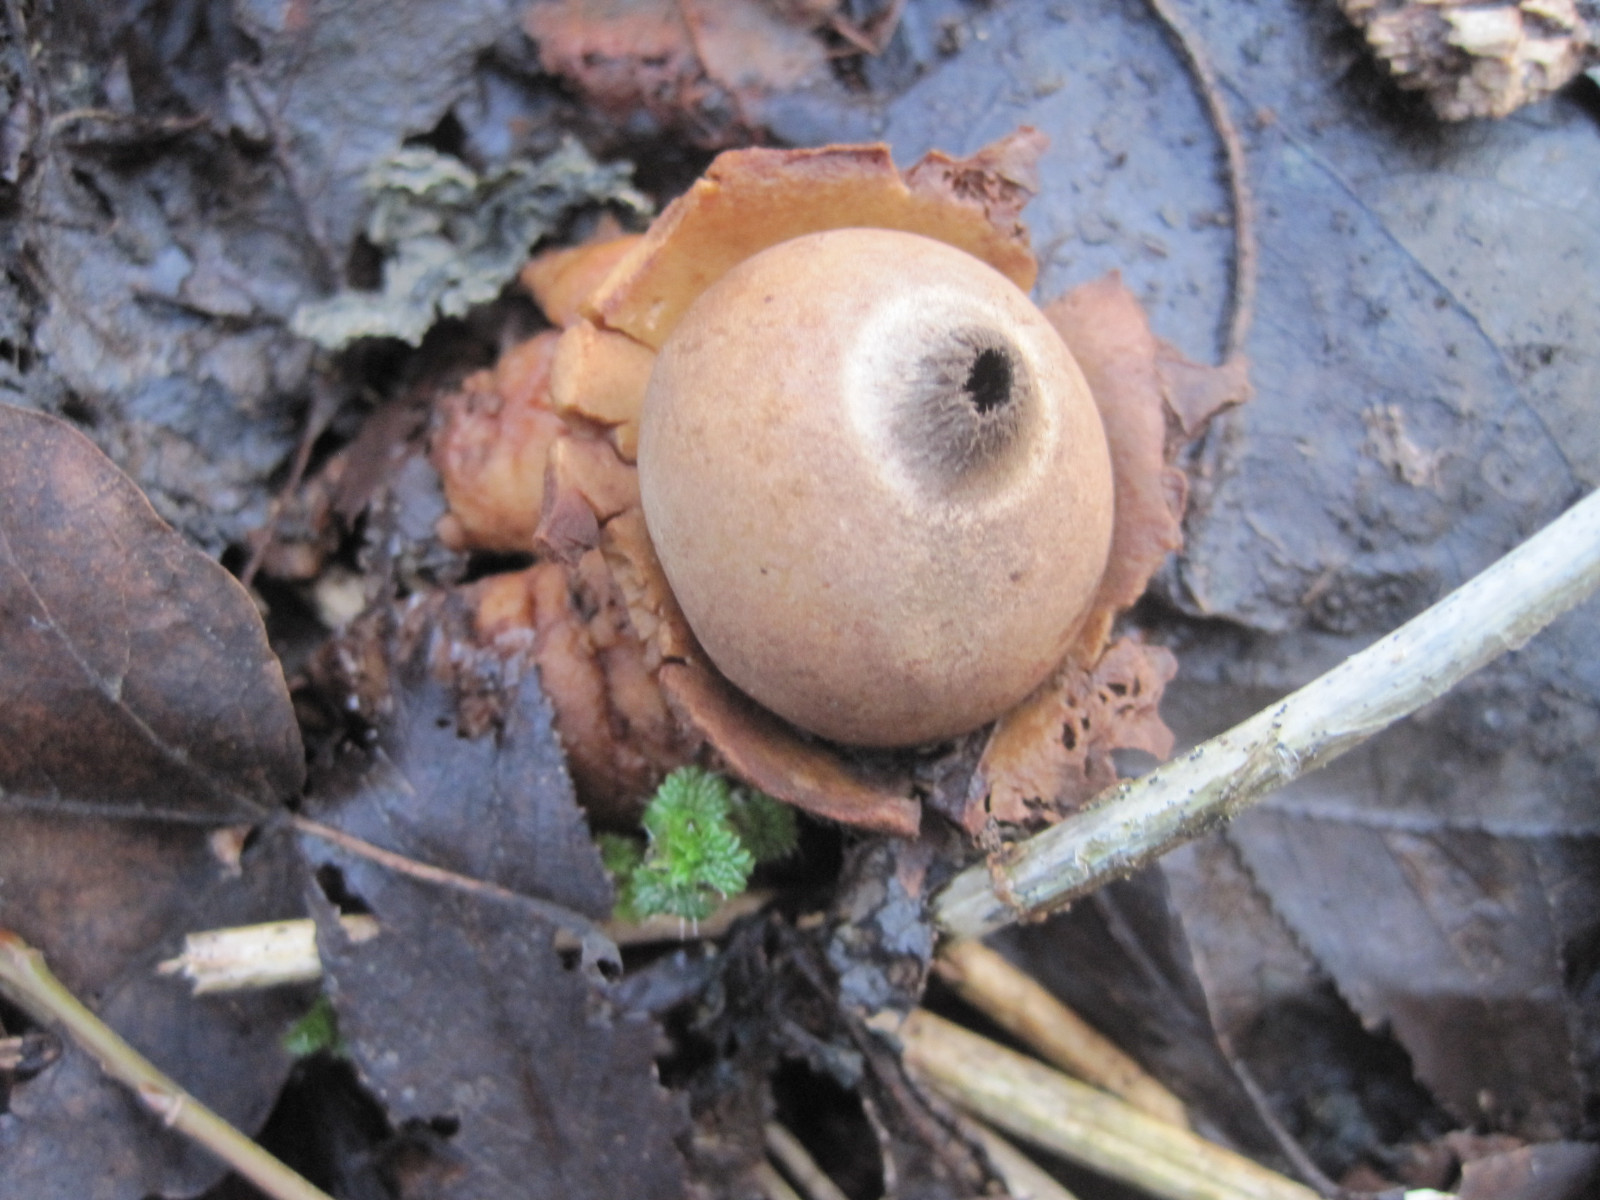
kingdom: Fungi
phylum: Basidiomycota
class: Agaricomycetes
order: Geastrales
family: Geastraceae
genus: Geastrum
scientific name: Geastrum michelianum
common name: kødet stjernebold
